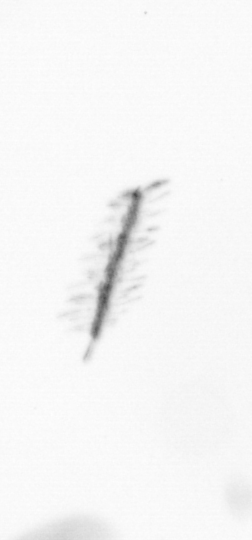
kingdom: Chromista
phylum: Ochrophyta
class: Bacillariophyceae
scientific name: Bacillariophyceae
